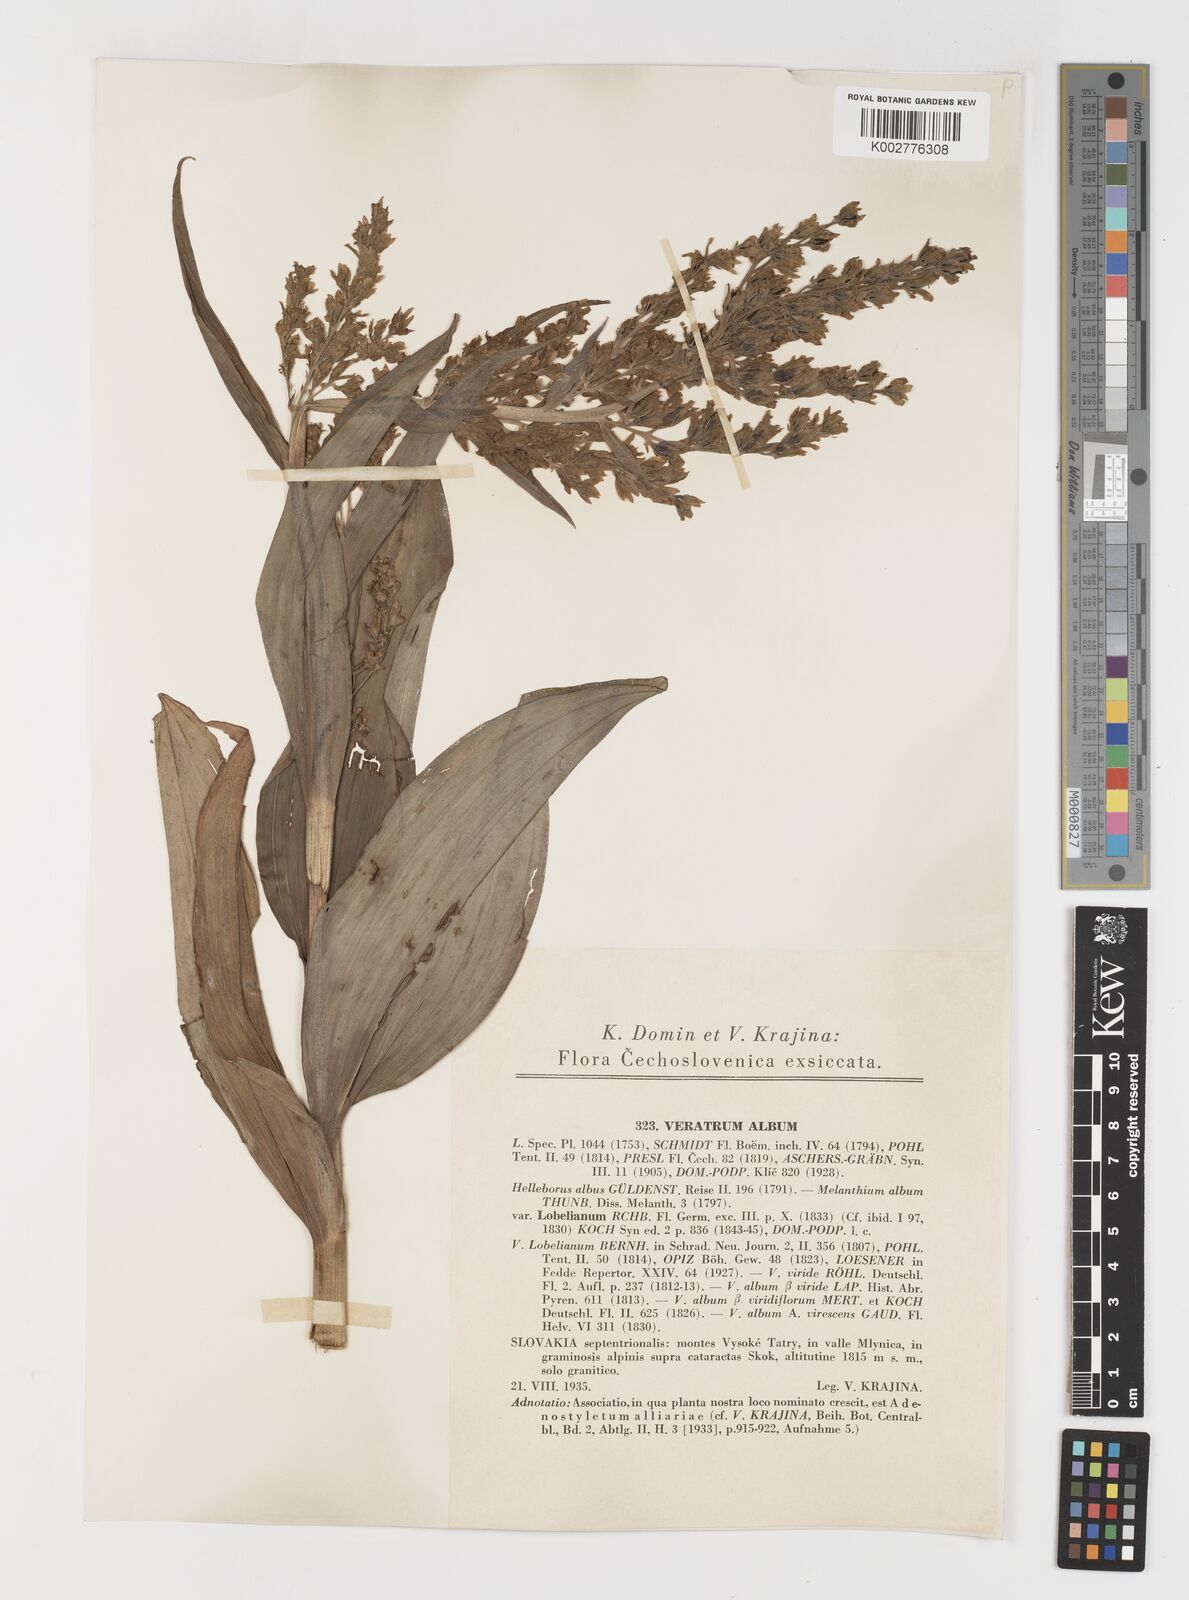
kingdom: Plantae
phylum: Tracheophyta
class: Liliopsida
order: Liliales
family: Melanthiaceae
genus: Veratrum
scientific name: Veratrum album
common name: White veratrum
